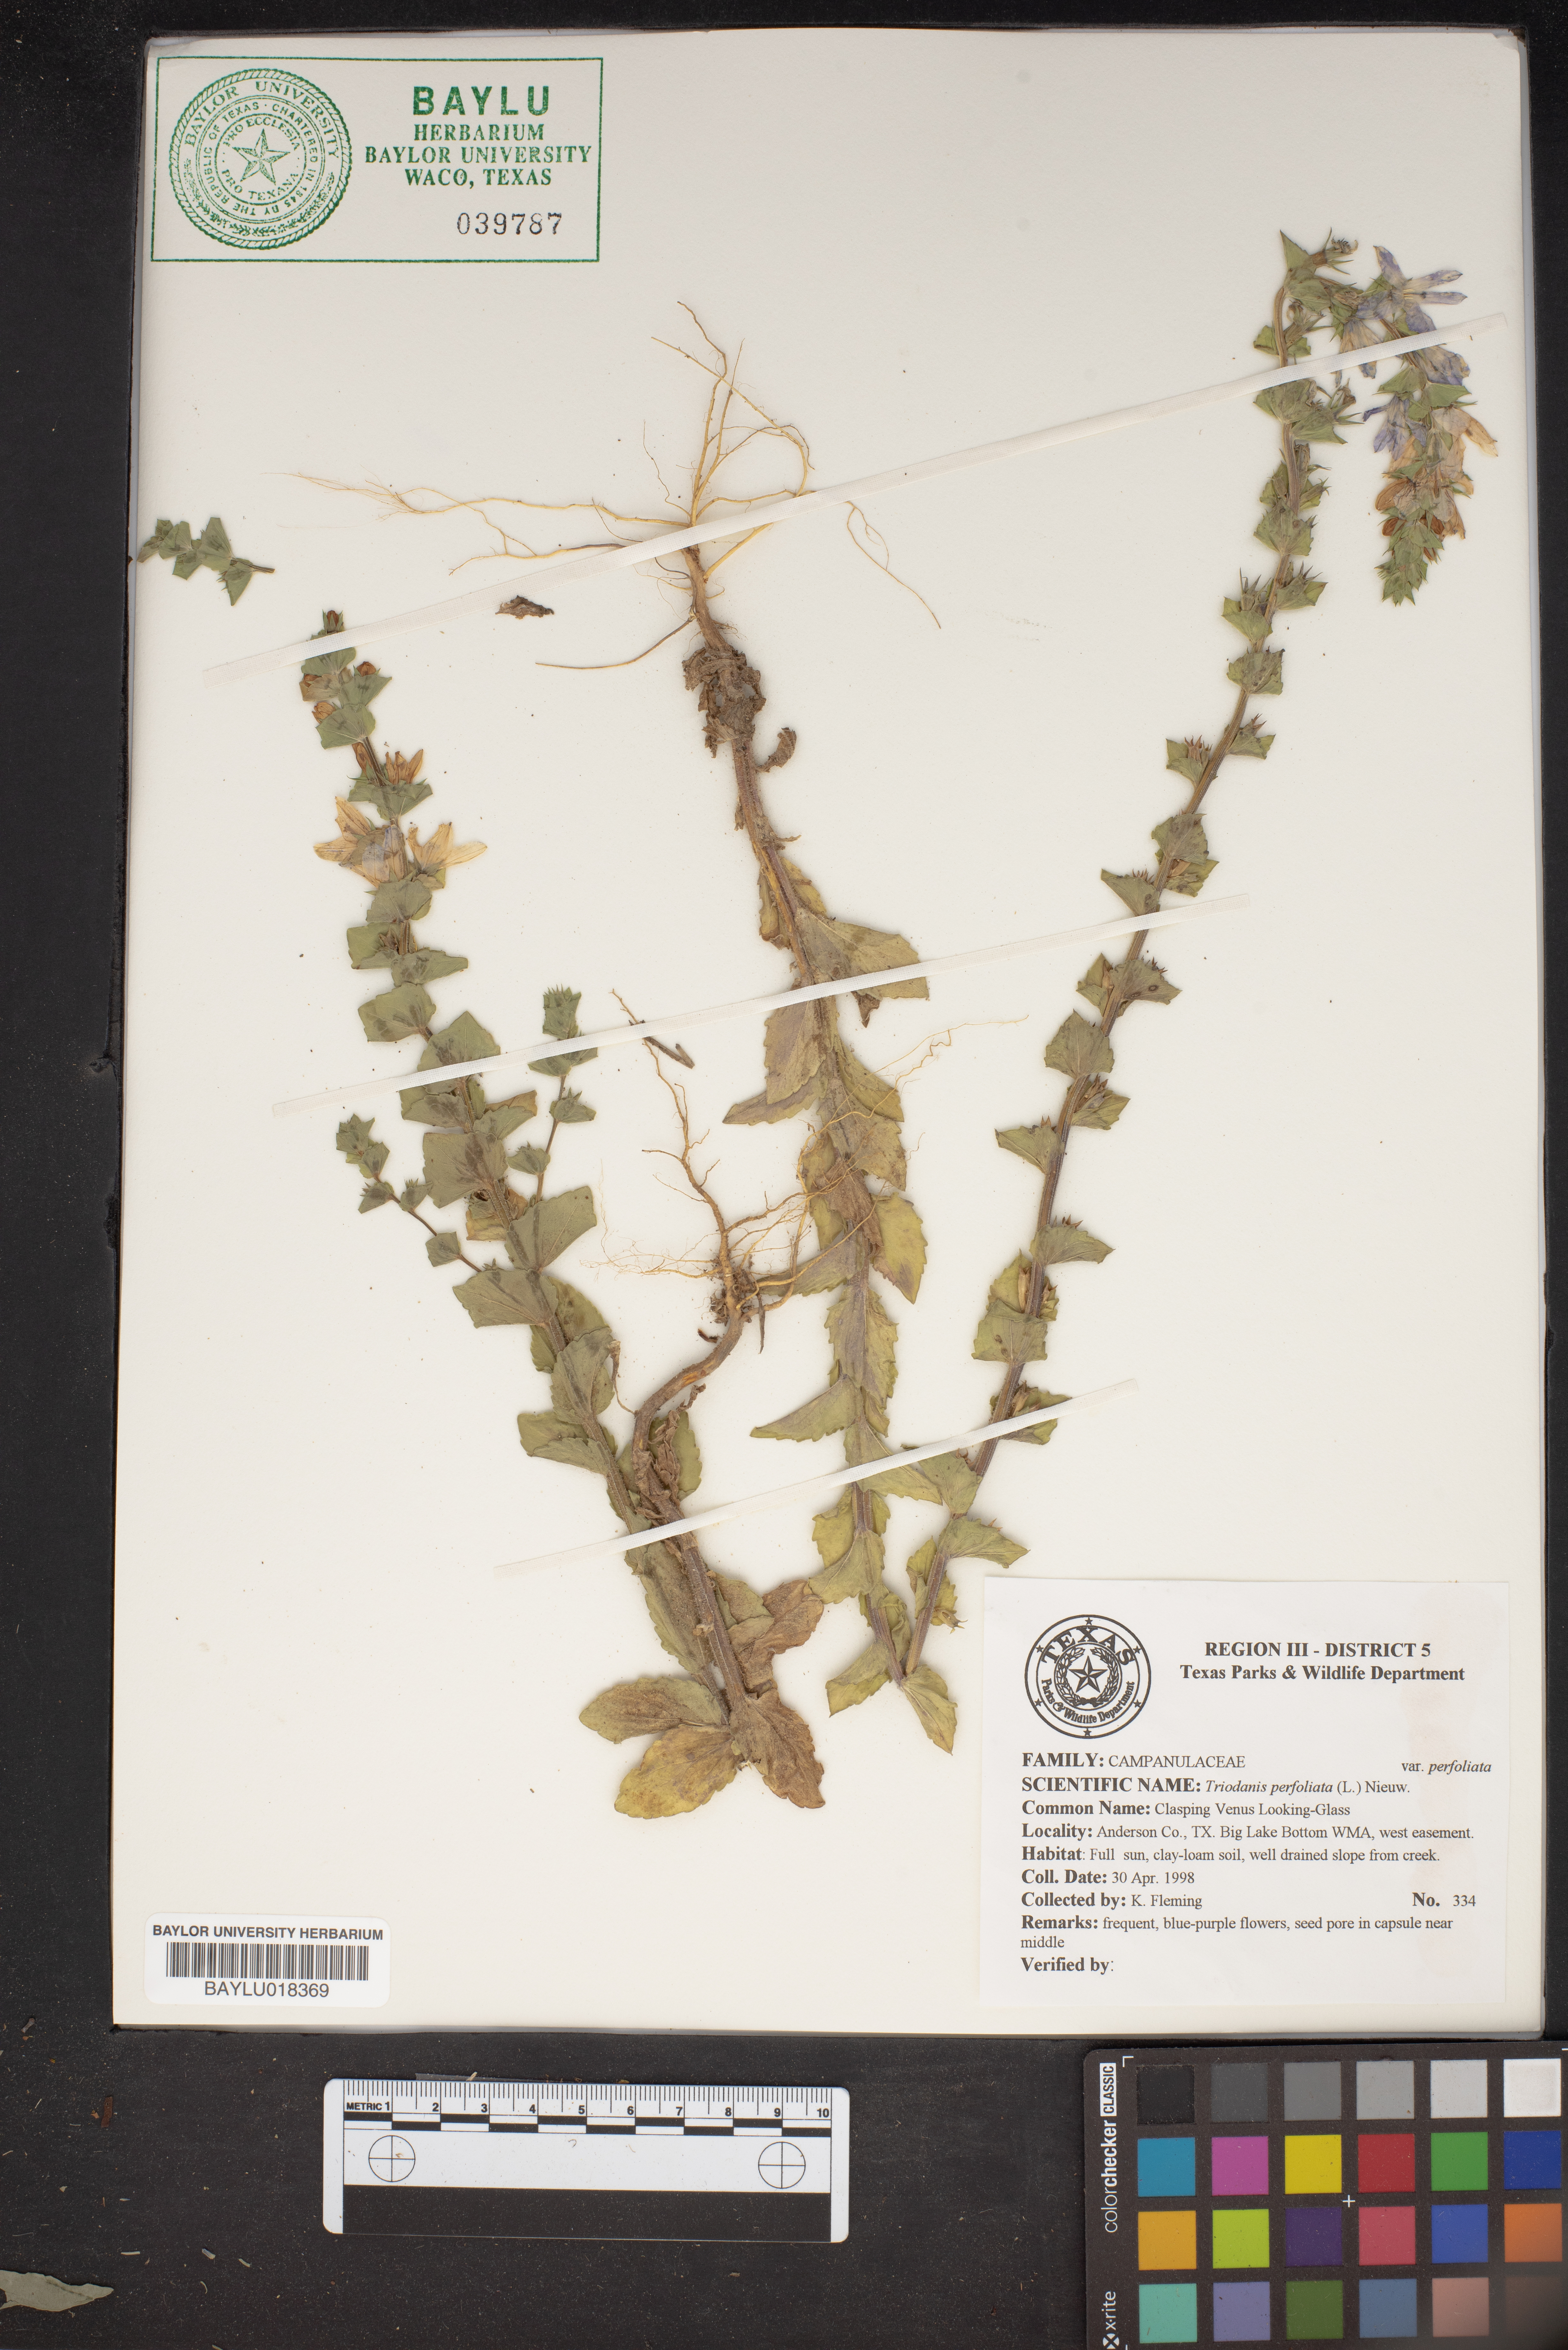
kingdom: Plantae
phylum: Tracheophyta
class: Magnoliopsida
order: Asterales
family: Campanulaceae
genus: Triodanis
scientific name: Triodanis perfoliata
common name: Clasping venus' looking-glass
